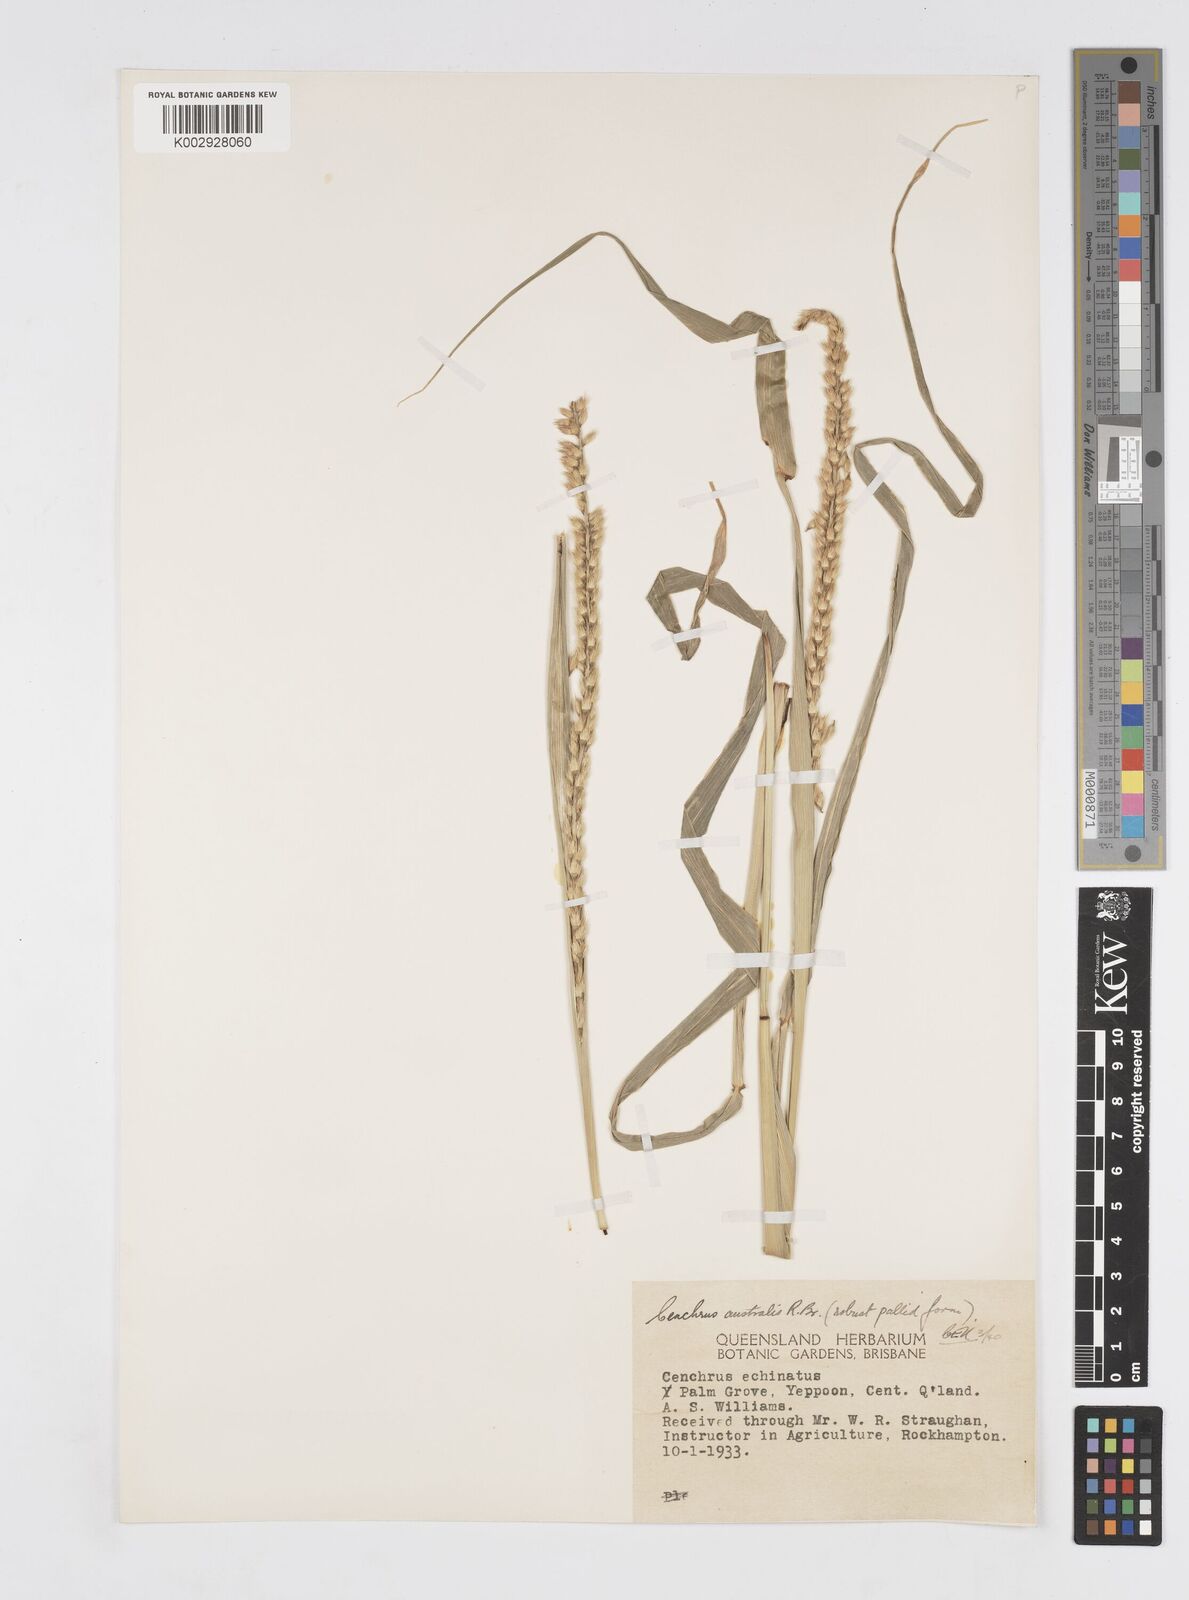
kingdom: Plantae
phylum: Tracheophyta
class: Liliopsida
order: Poales
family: Poaceae
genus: Cenchrus
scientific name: Cenchrus caliculatus
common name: Large bur grass
